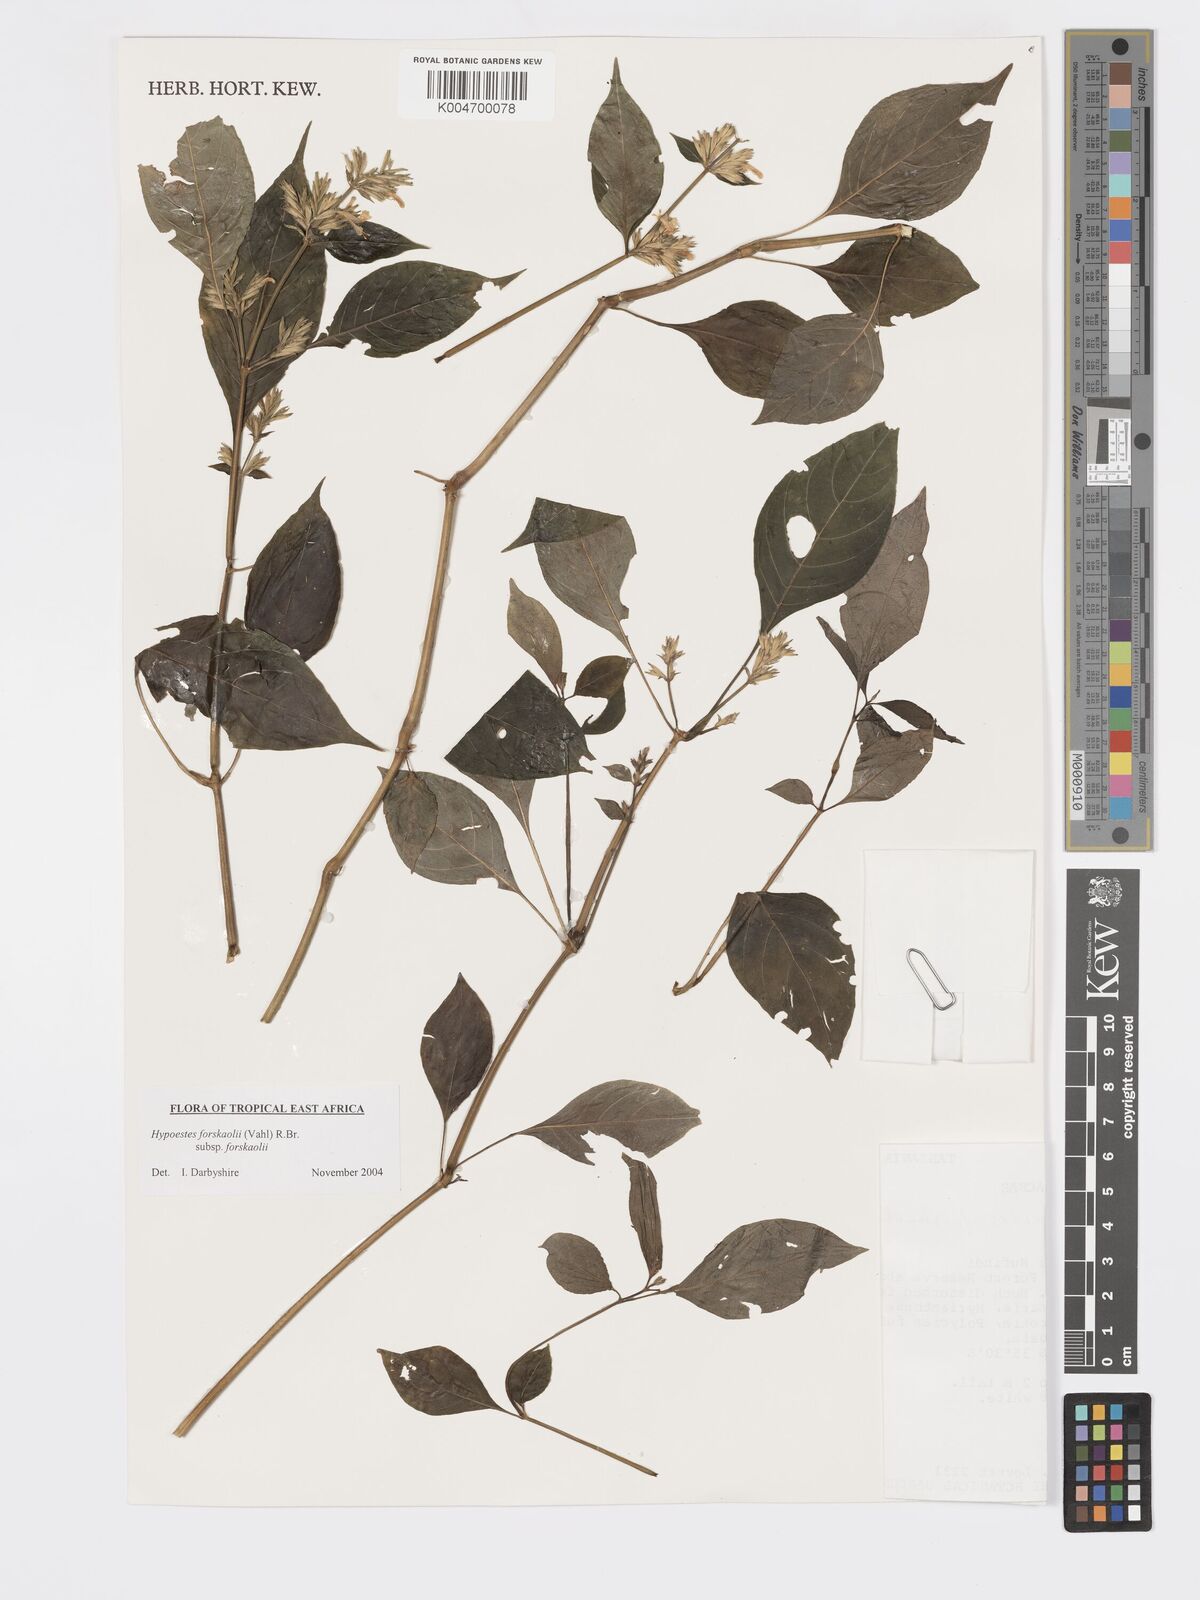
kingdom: Plantae
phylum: Tracheophyta
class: Magnoliopsida
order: Lamiales
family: Acanthaceae
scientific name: Acanthaceae
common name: Acanthaceae
